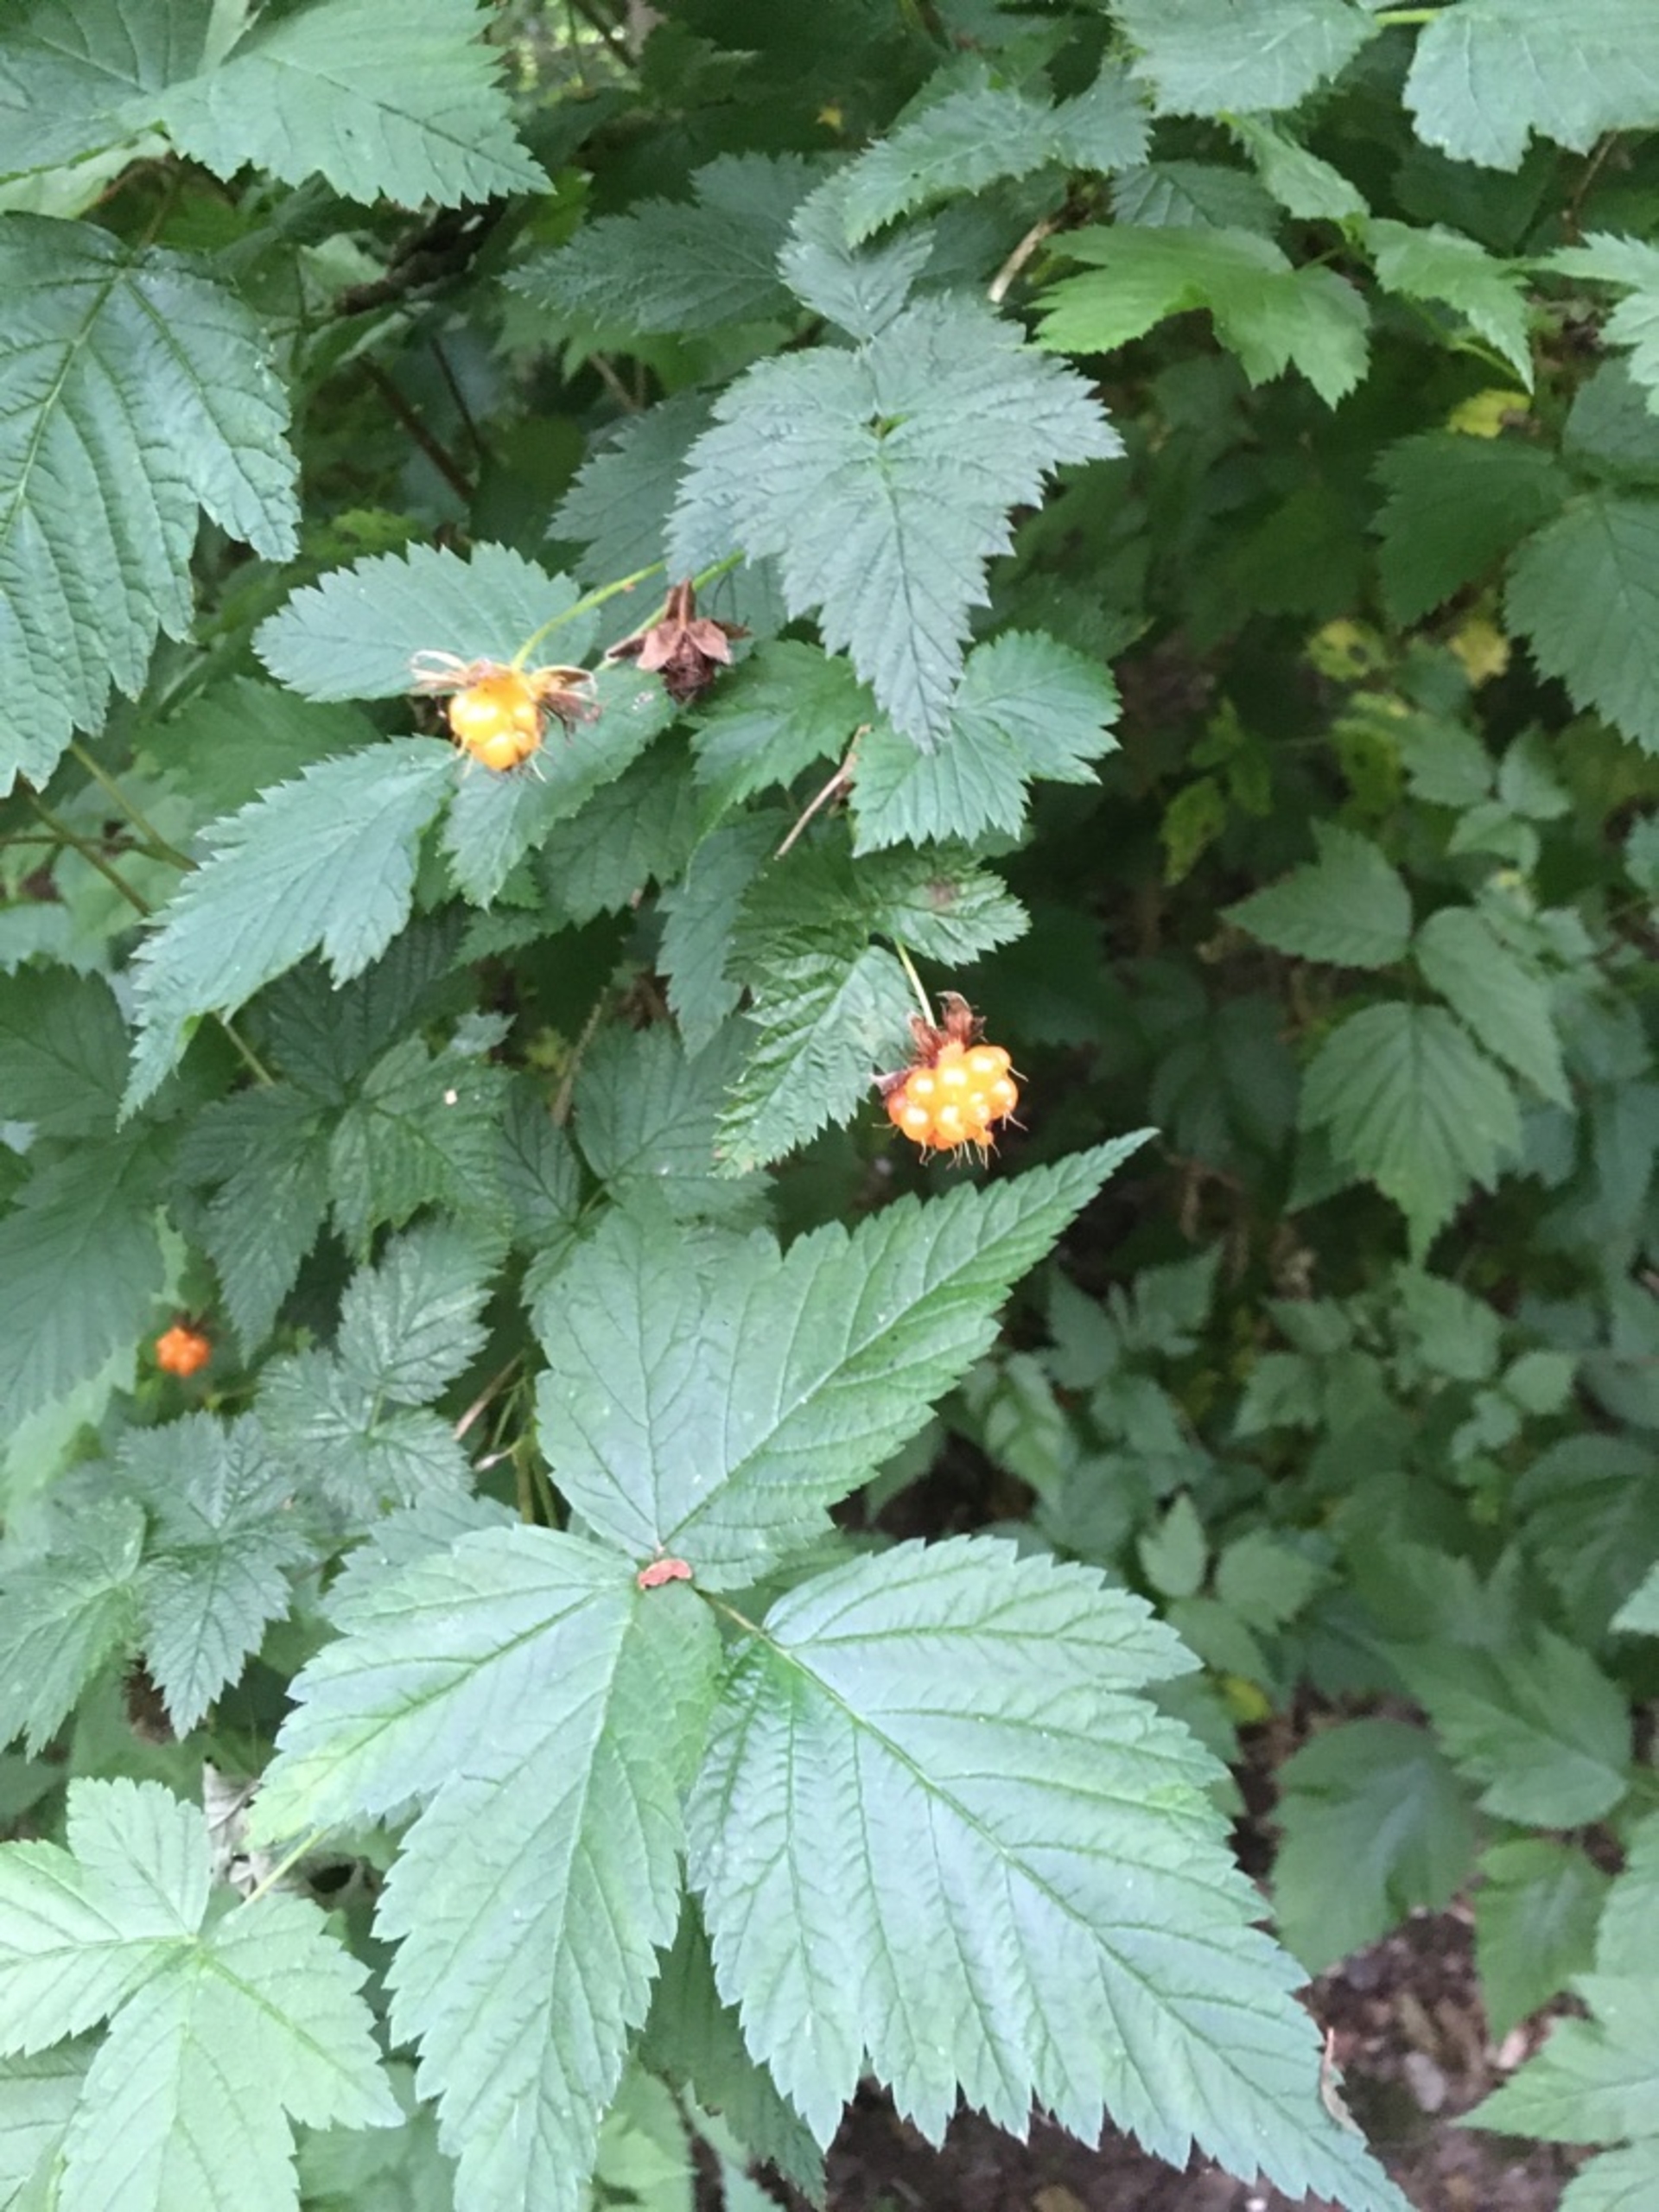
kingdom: Plantae
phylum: Tracheophyta
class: Magnoliopsida
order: Rosales
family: Rosaceae
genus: Rubus
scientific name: Rubus spectabilis
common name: Laksebær
